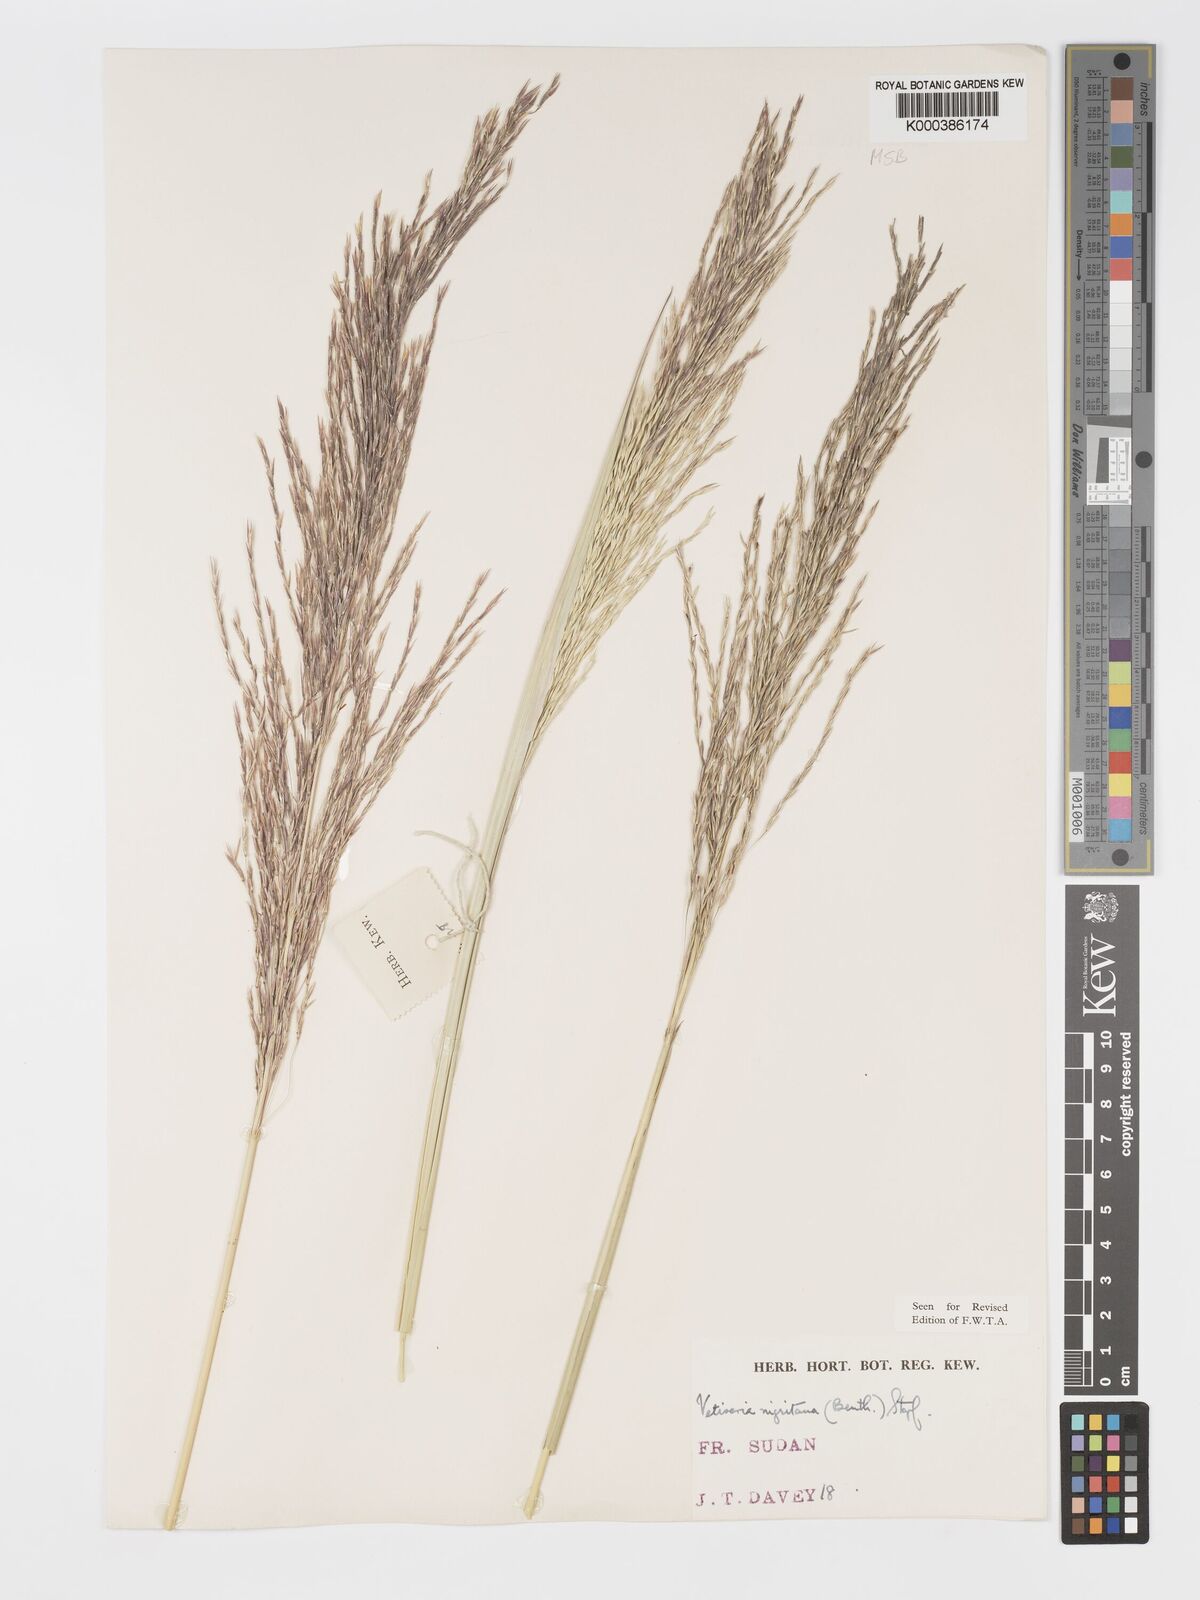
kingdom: Plantae
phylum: Tracheophyta
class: Liliopsida
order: Poales
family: Poaceae
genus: Chrysopogon
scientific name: Chrysopogon nigritanus
